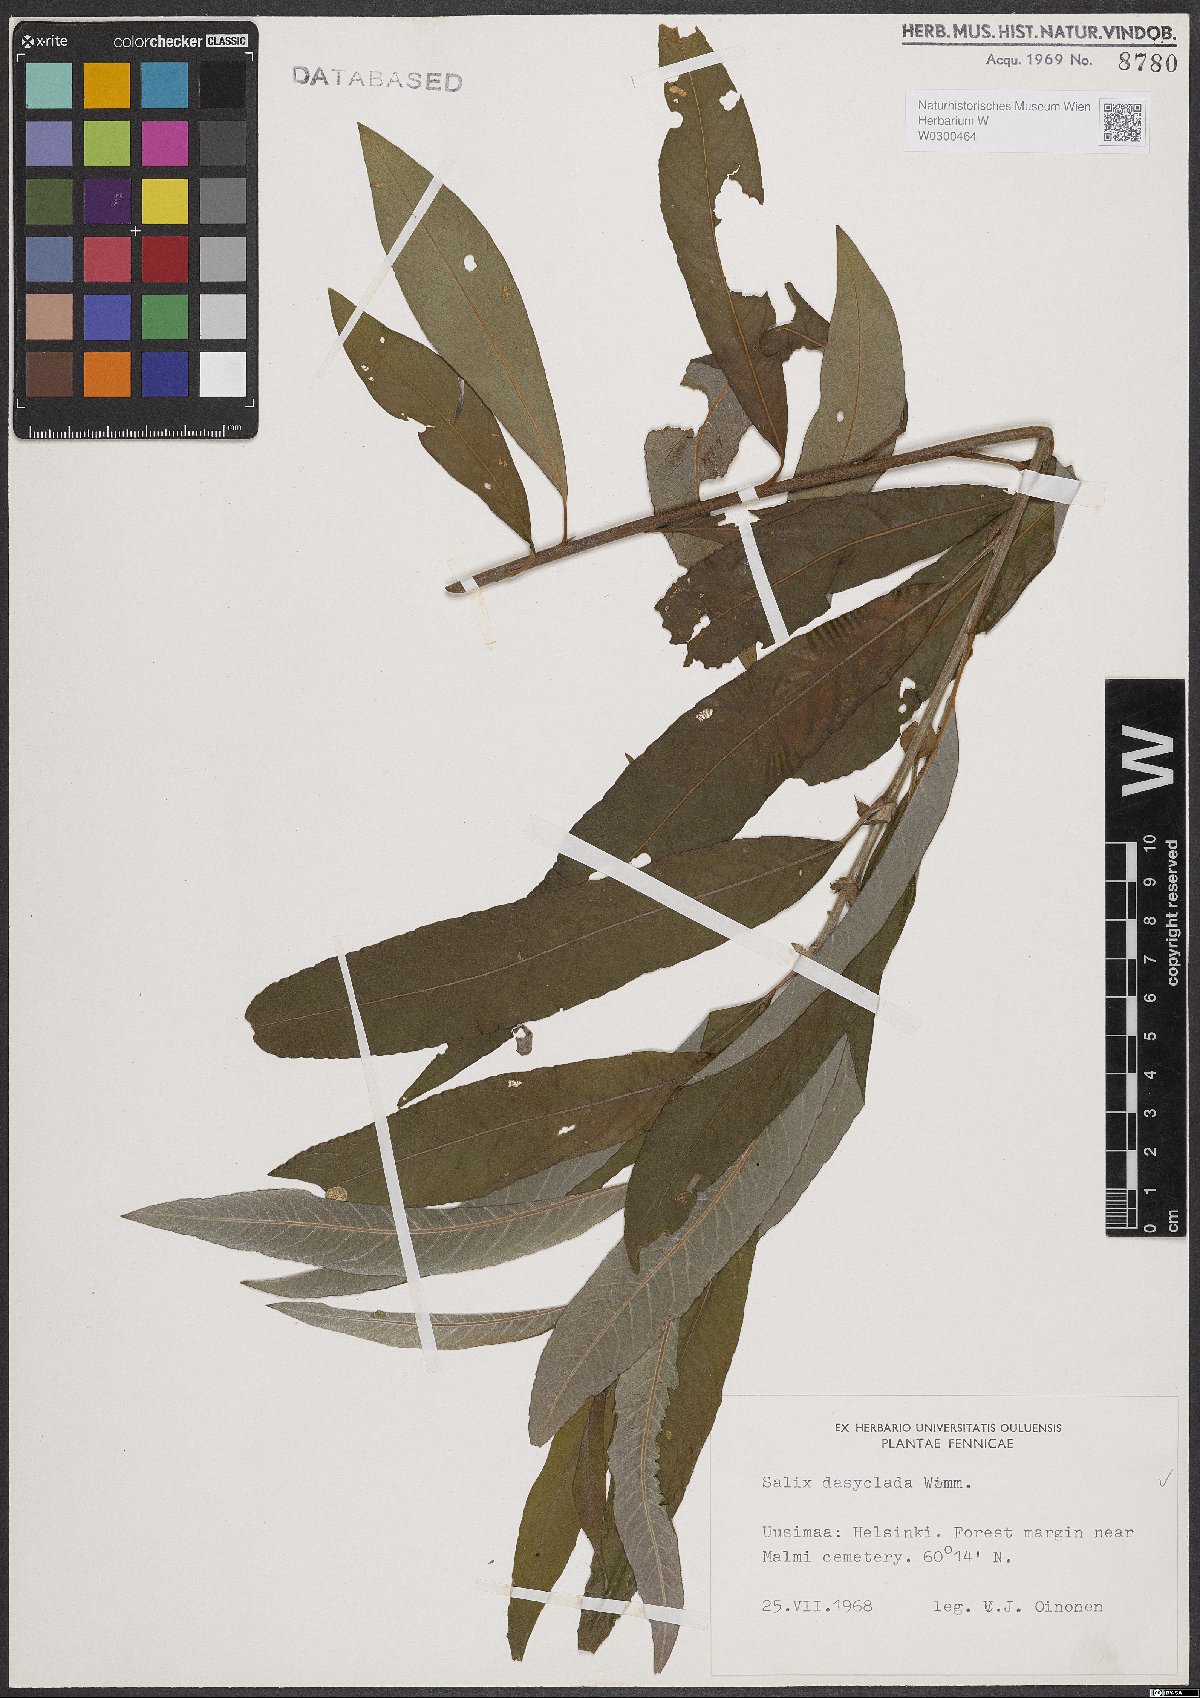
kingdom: Plantae
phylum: Tracheophyta
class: Magnoliopsida
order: Malpighiales
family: Salicaceae
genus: Salix
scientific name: Salix gmelinii
